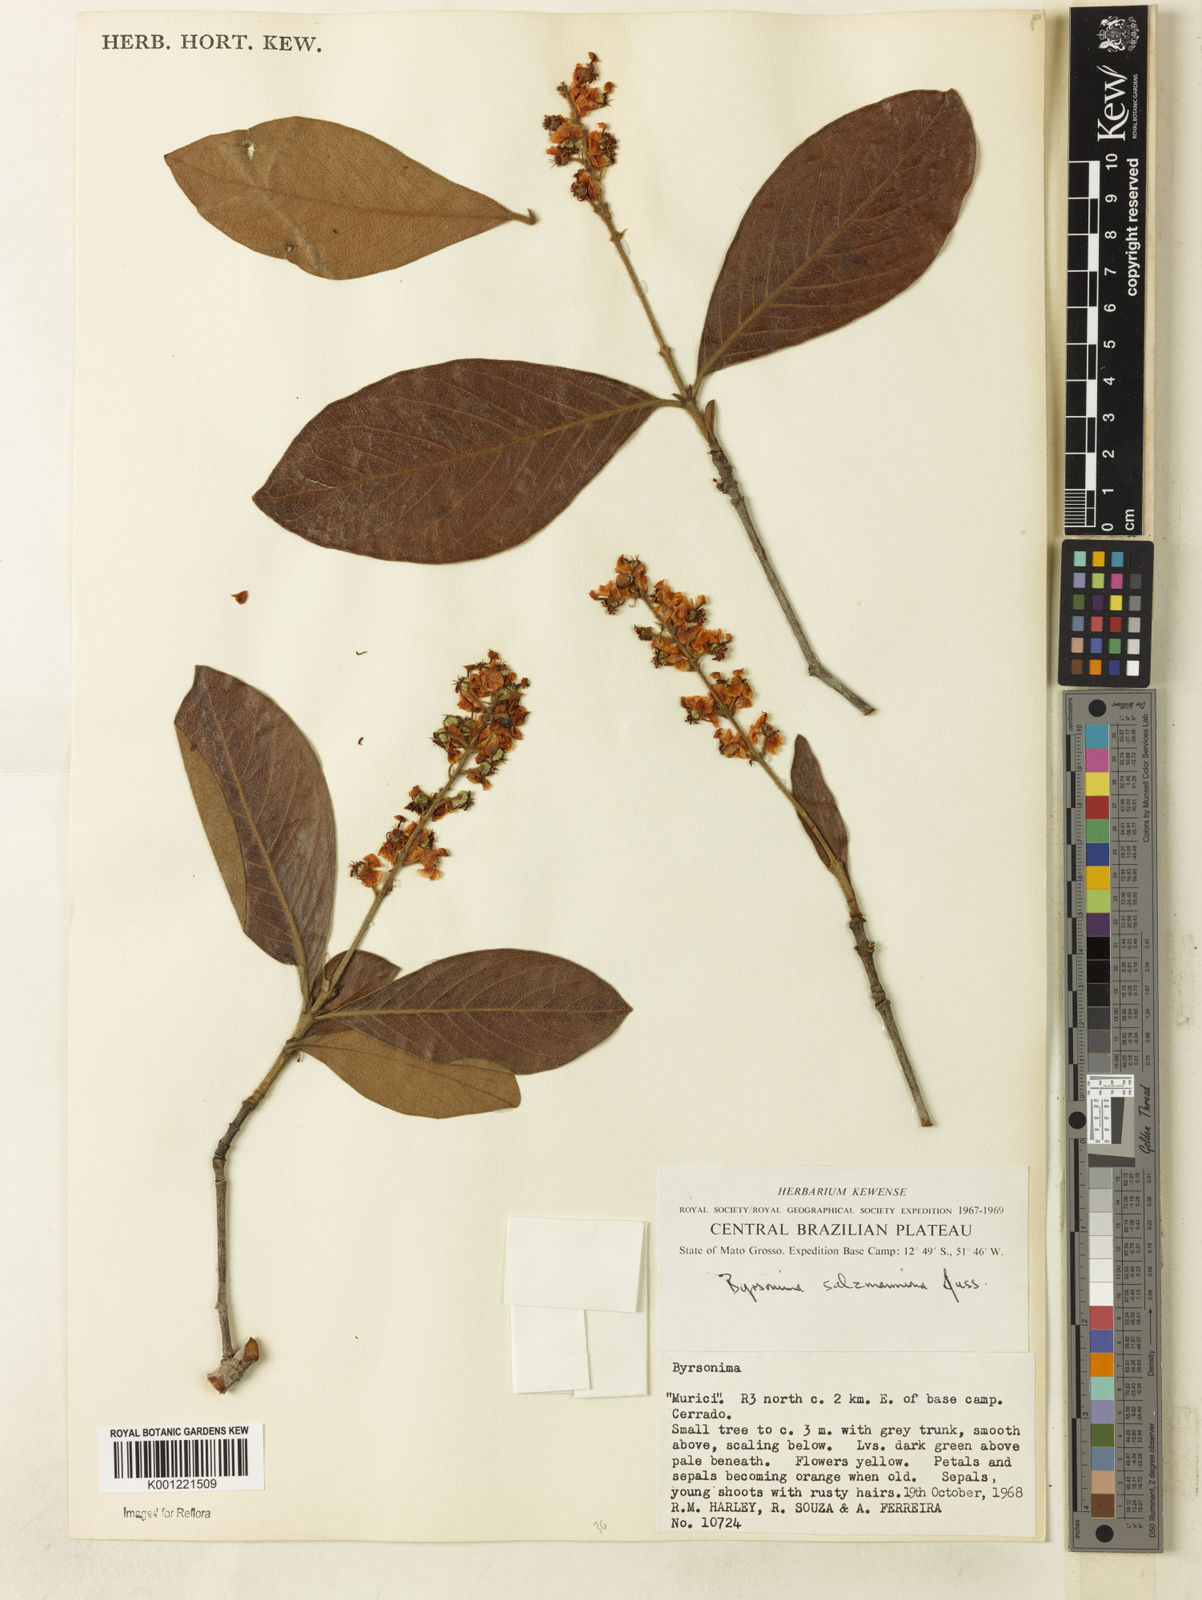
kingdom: Plantae
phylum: Tracheophyta
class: Magnoliopsida
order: Malpighiales
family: Malpighiaceae
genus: Byrsonima
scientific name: Byrsonima salzmanniana
